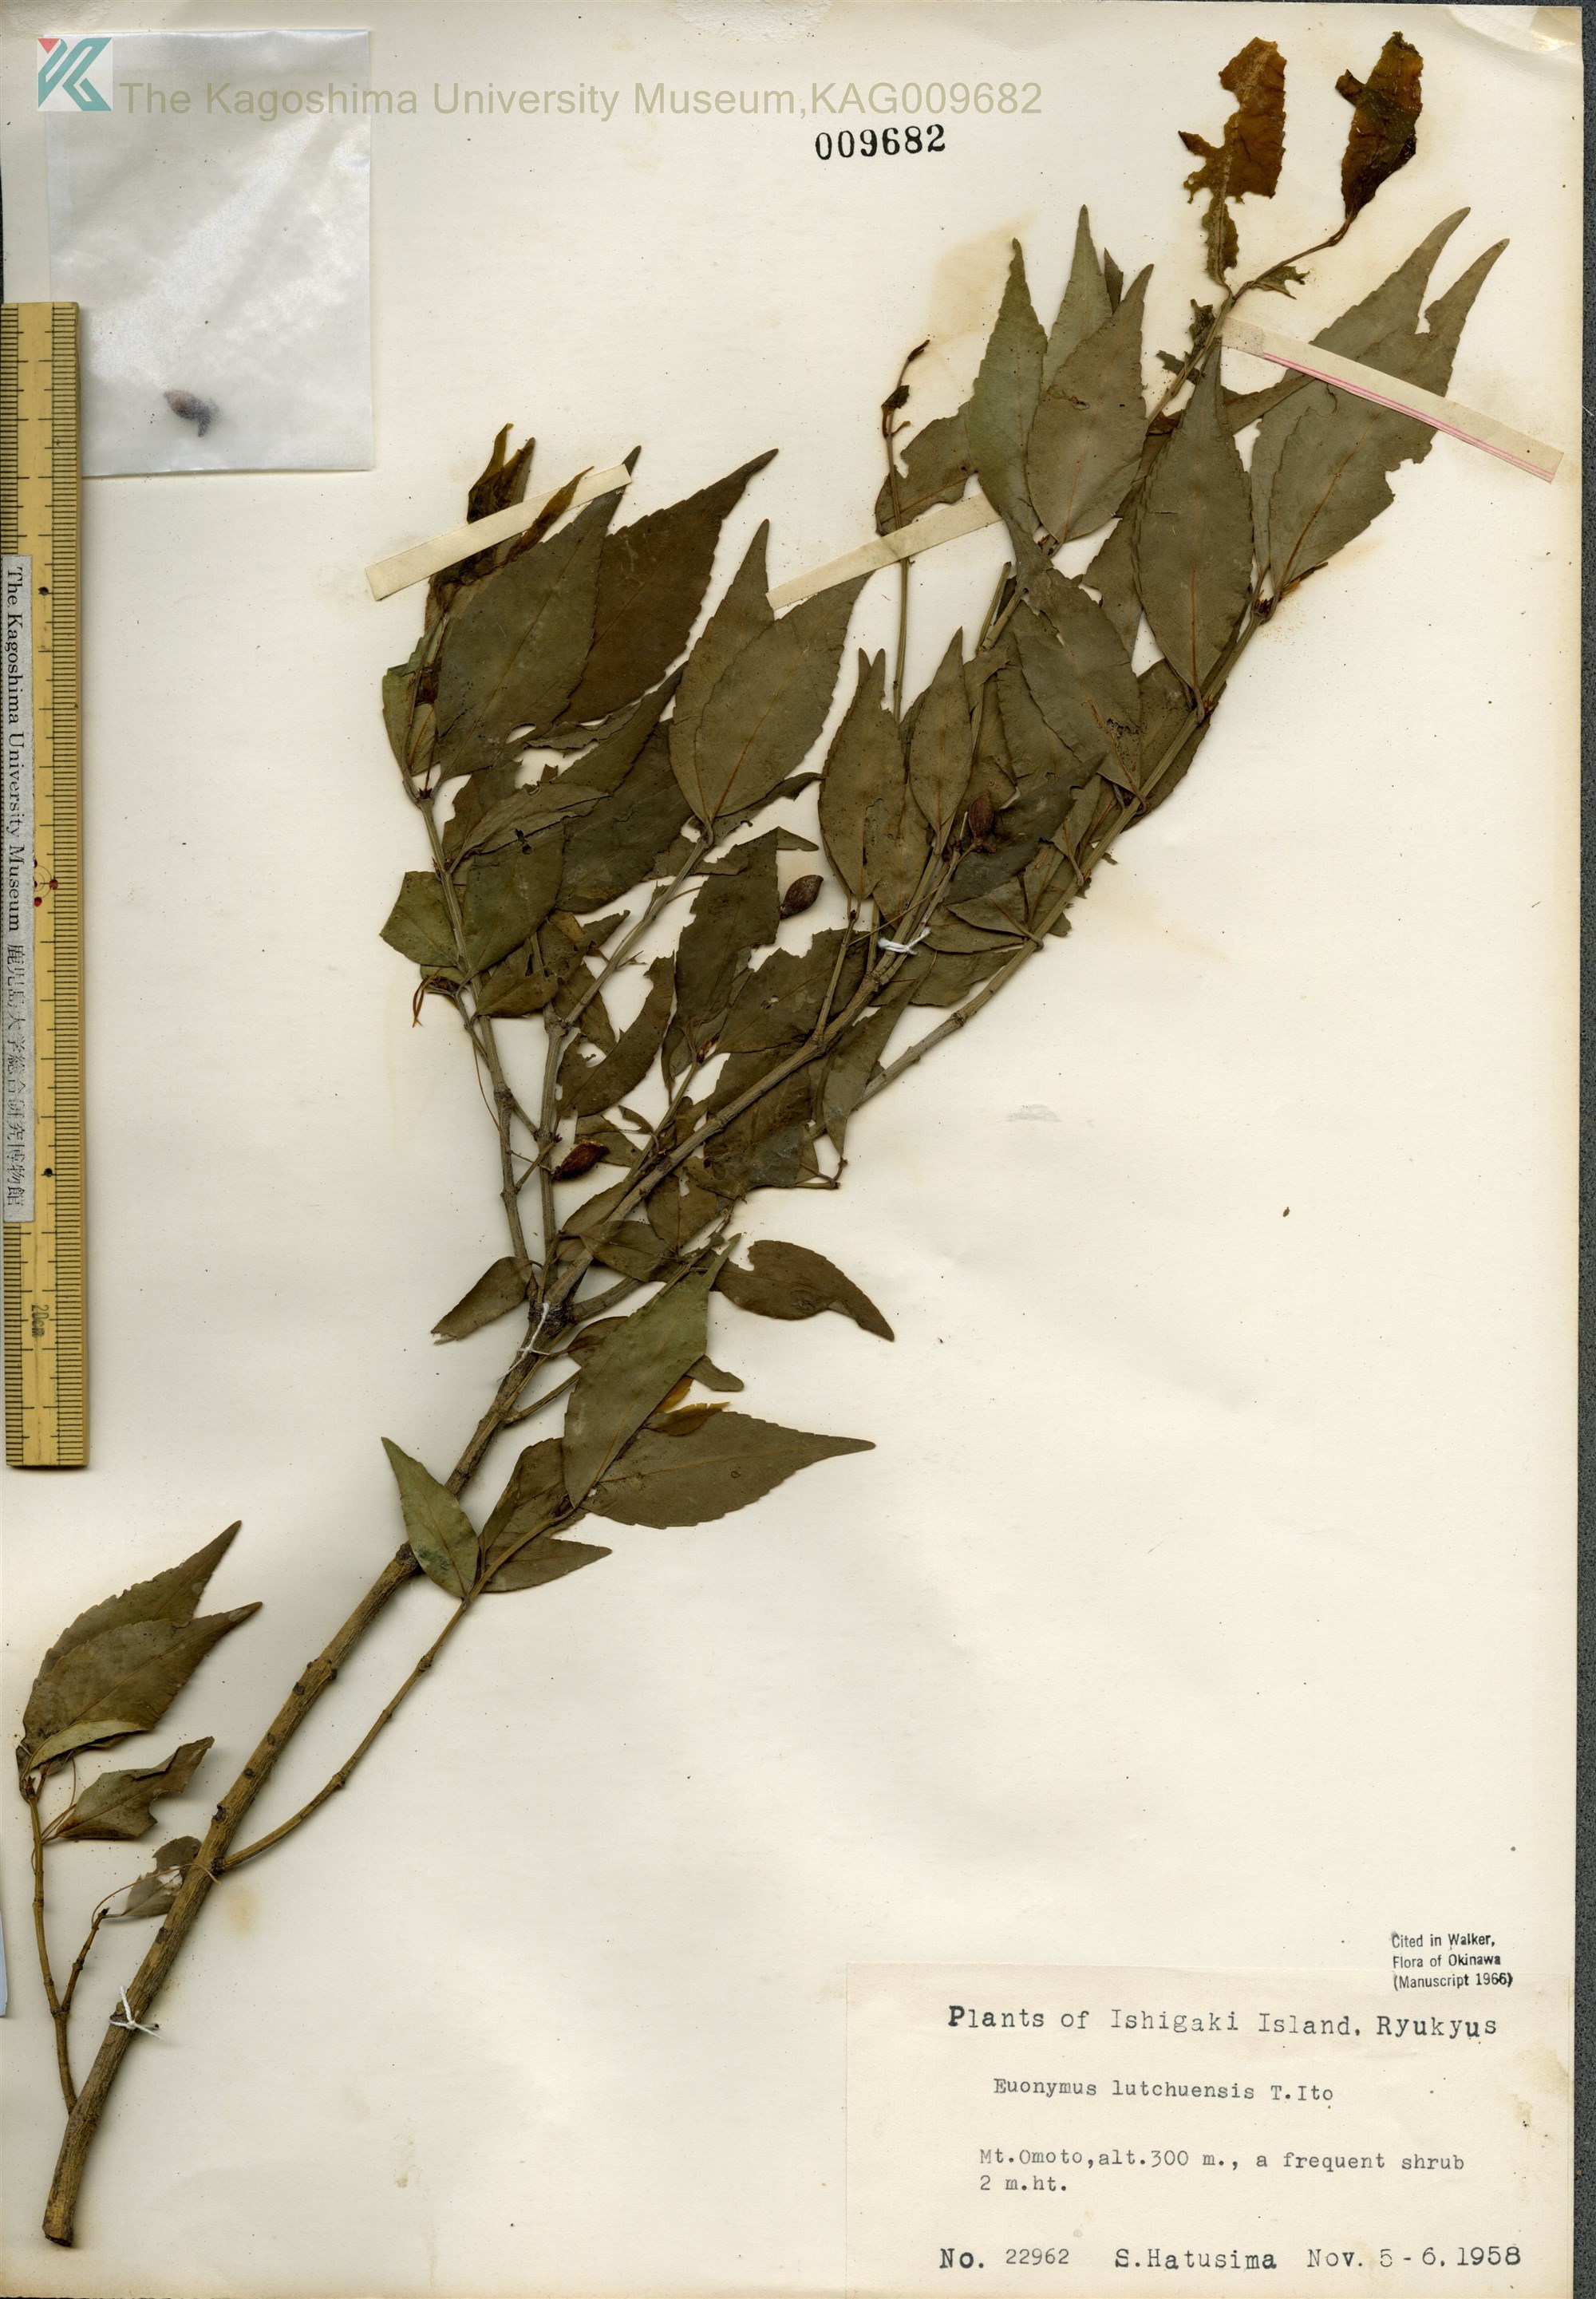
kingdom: Plantae
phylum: Tracheophyta
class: Magnoliopsida
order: Celastrales
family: Celastraceae
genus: Euonymus
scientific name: Euonymus lutchuensis
